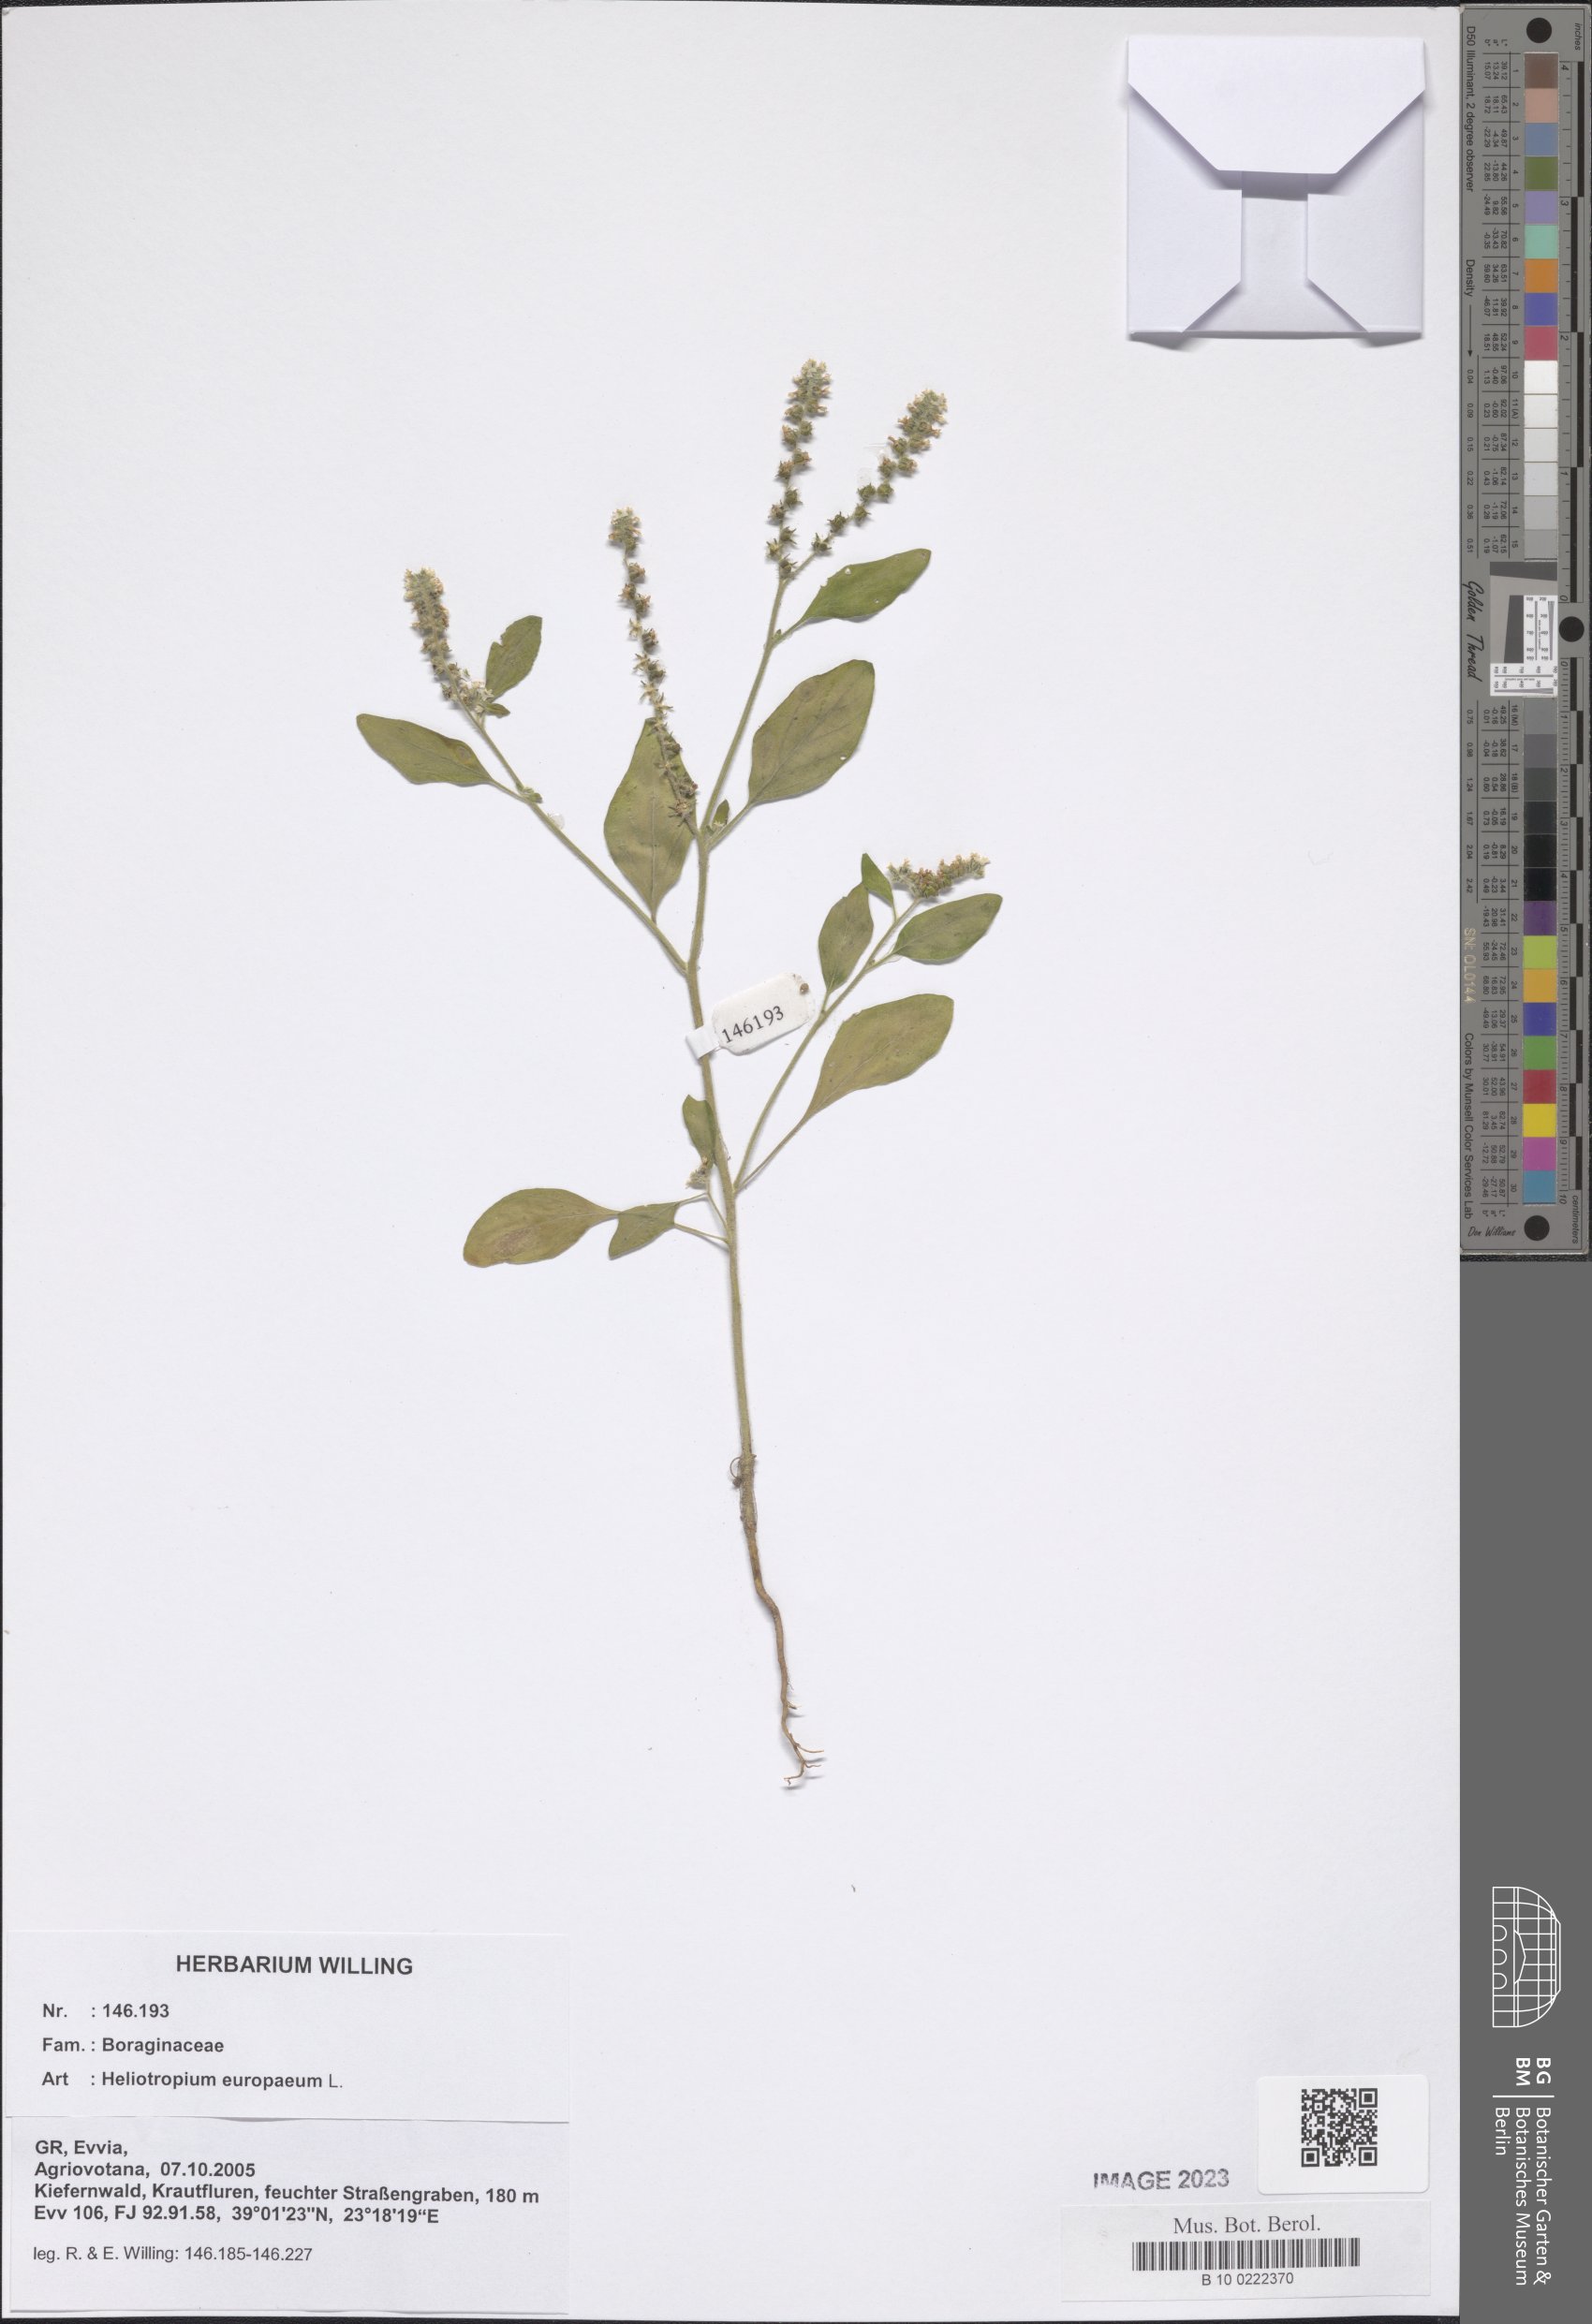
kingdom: Plantae
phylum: Tracheophyta
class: Magnoliopsida
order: Boraginales
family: Heliotropiaceae
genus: Heliotropium
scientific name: Heliotropium europaeum
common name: European heliotrope
